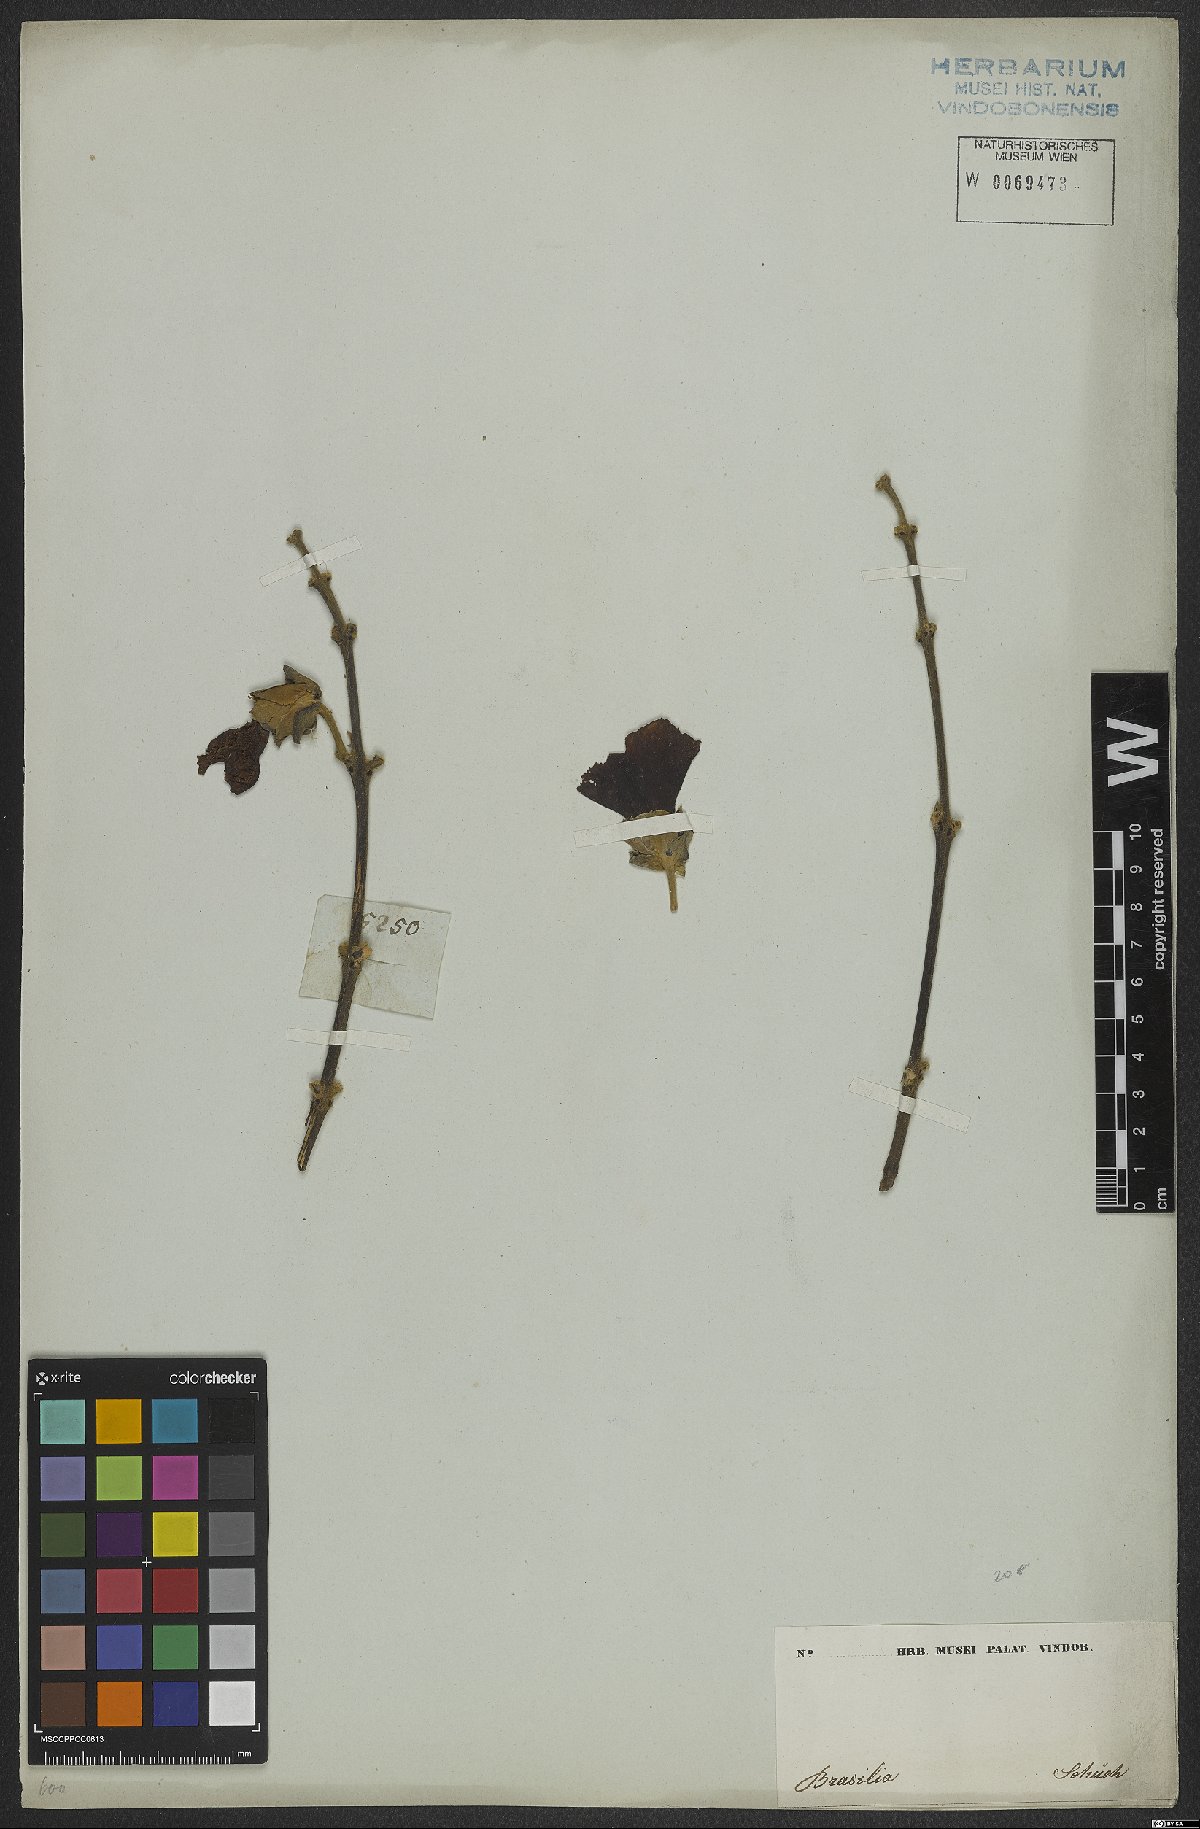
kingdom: Plantae
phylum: Tracheophyta
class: Magnoliopsida
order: Malvales
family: Malvaceae
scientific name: Malvaceae
